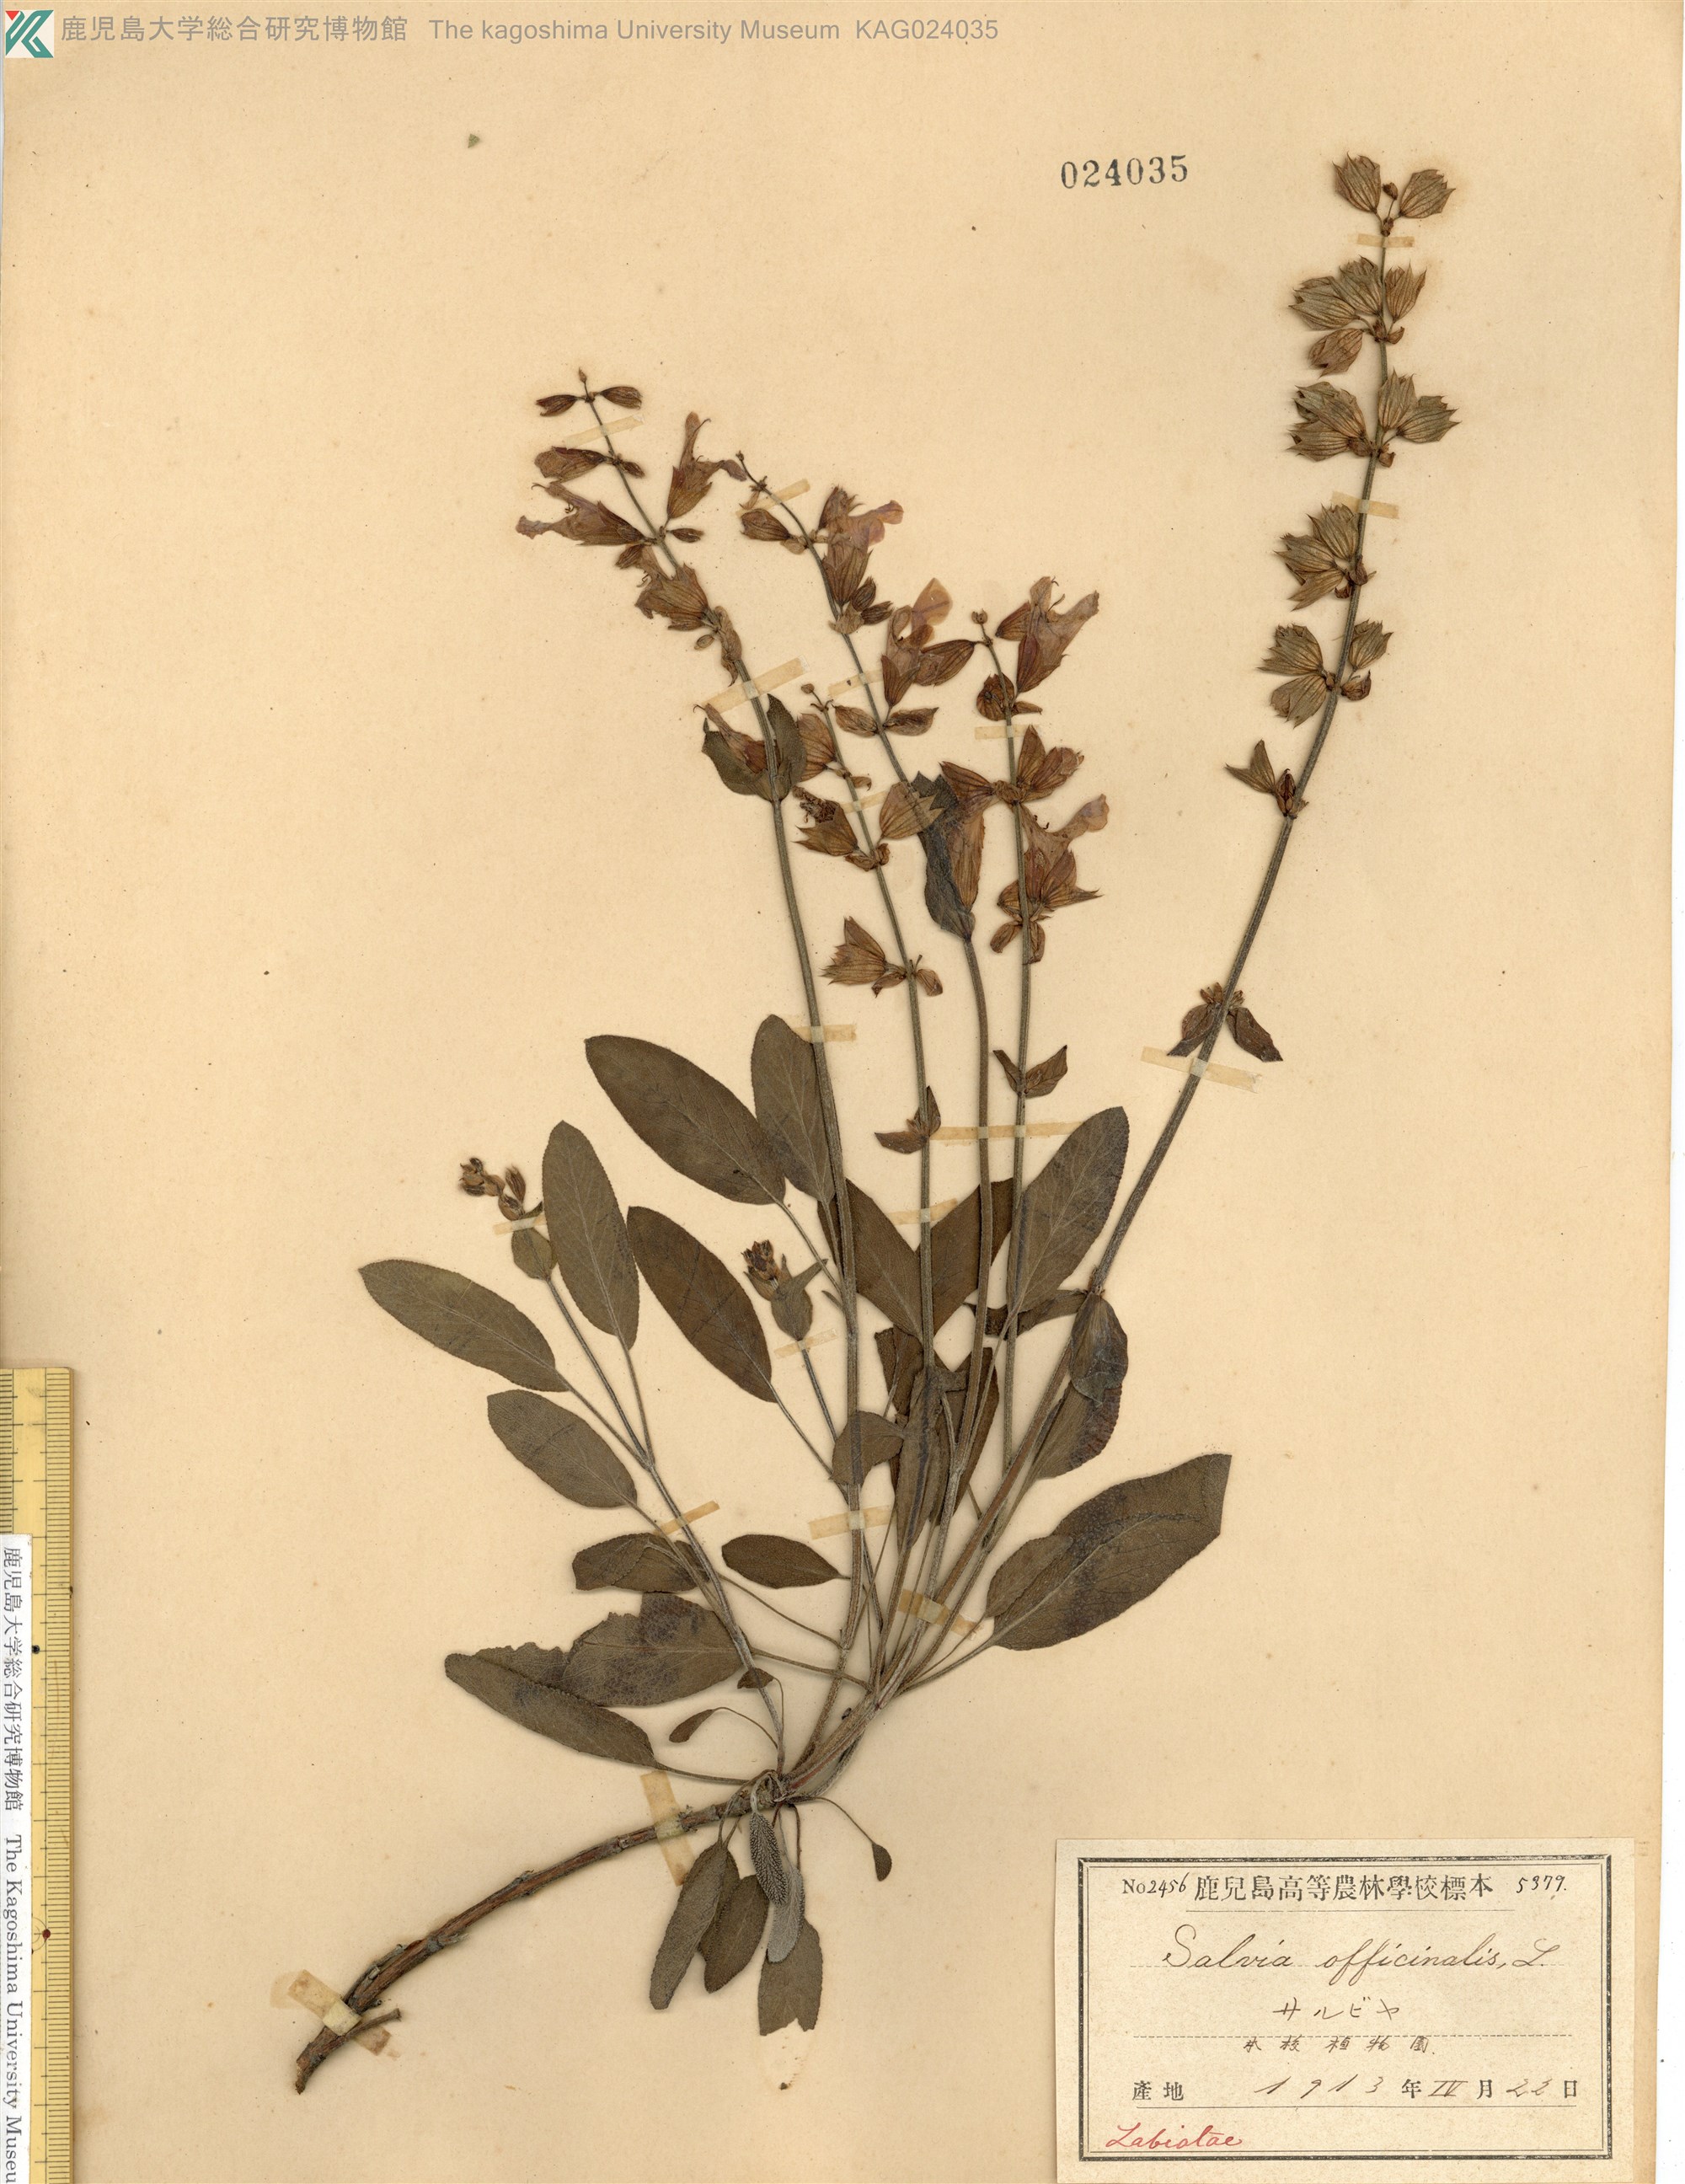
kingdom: Plantae
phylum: Tracheophyta
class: Magnoliopsida
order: Lamiales
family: Lamiaceae
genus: Salvia
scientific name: Salvia officinalis
